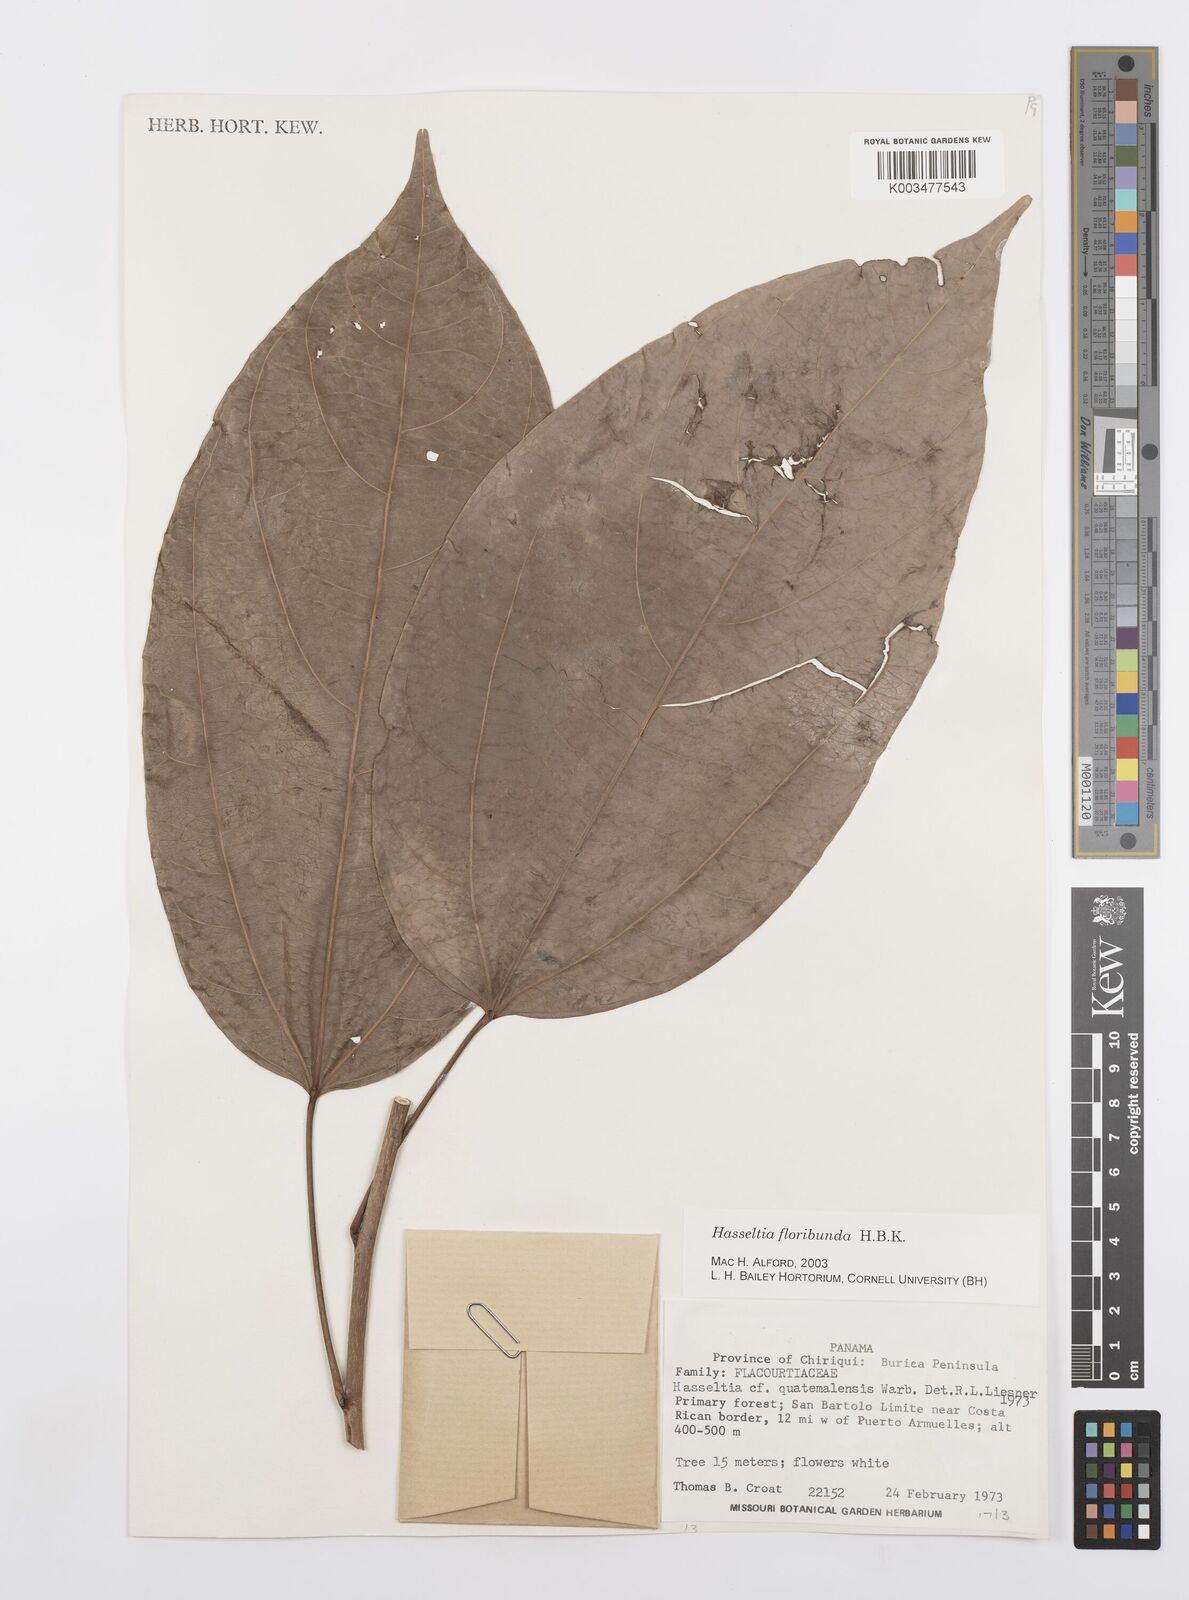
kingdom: Plantae
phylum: Tracheophyta
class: Magnoliopsida
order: Malpighiales
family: Salicaceae
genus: Hasseltia
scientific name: Hasseltia floribunda
